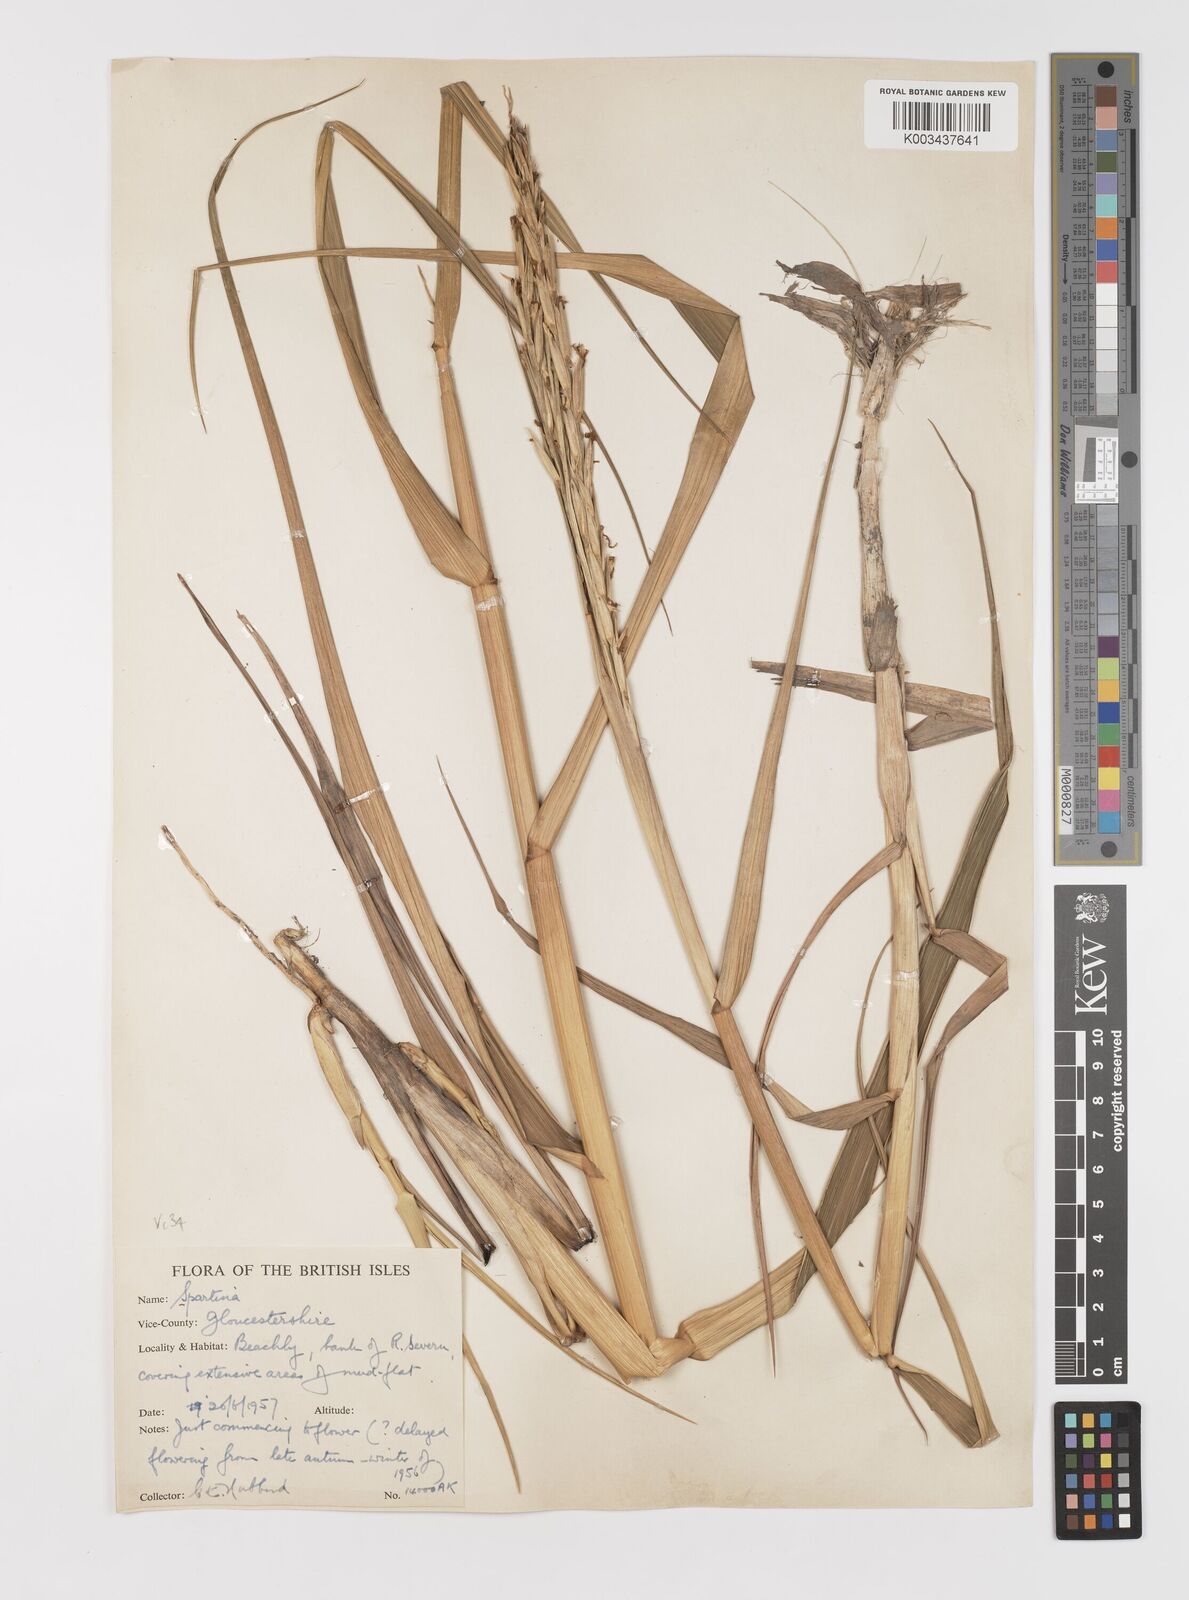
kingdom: Plantae
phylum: Tracheophyta
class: Liliopsida
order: Poales
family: Poaceae
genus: Sporobolus
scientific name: Sporobolus anglicus
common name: English cordgrass
